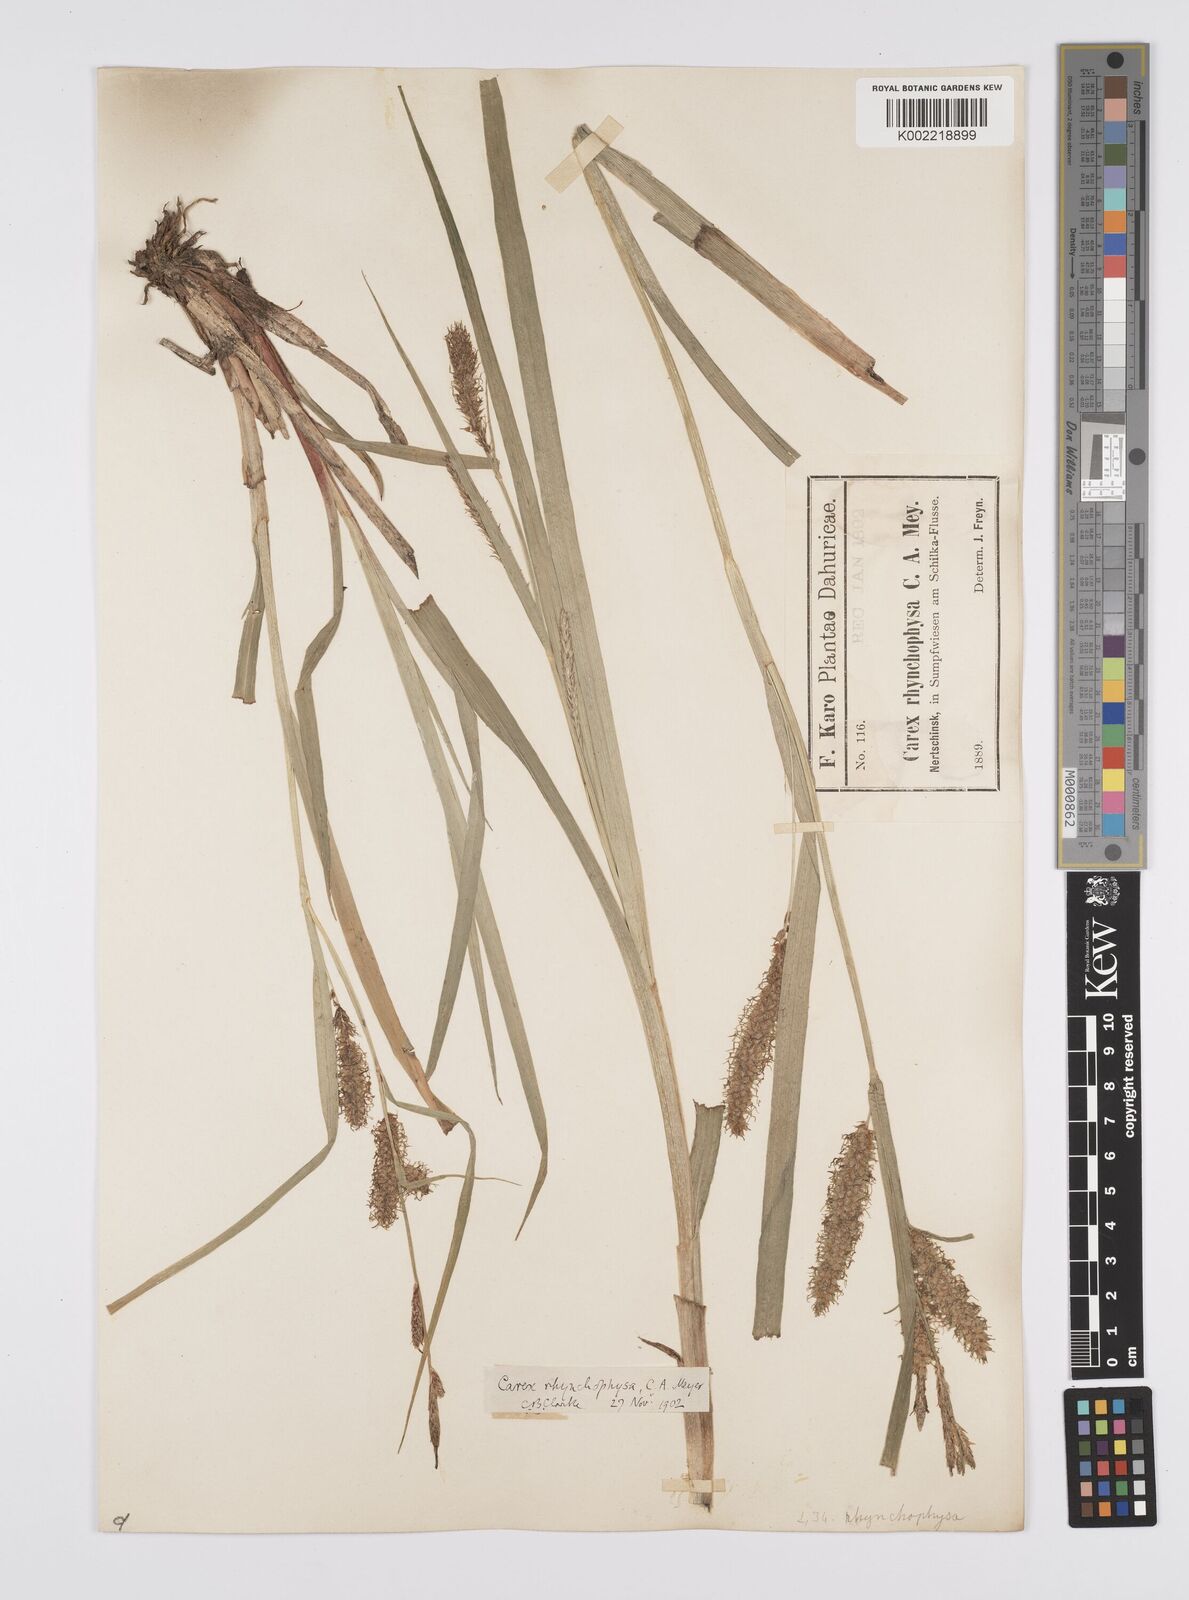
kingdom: Plantae
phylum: Tracheophyta
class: Liliopsida
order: Poales
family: Cyperaceae
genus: Carex
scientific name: Carex utriculata
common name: Beaked sedge
